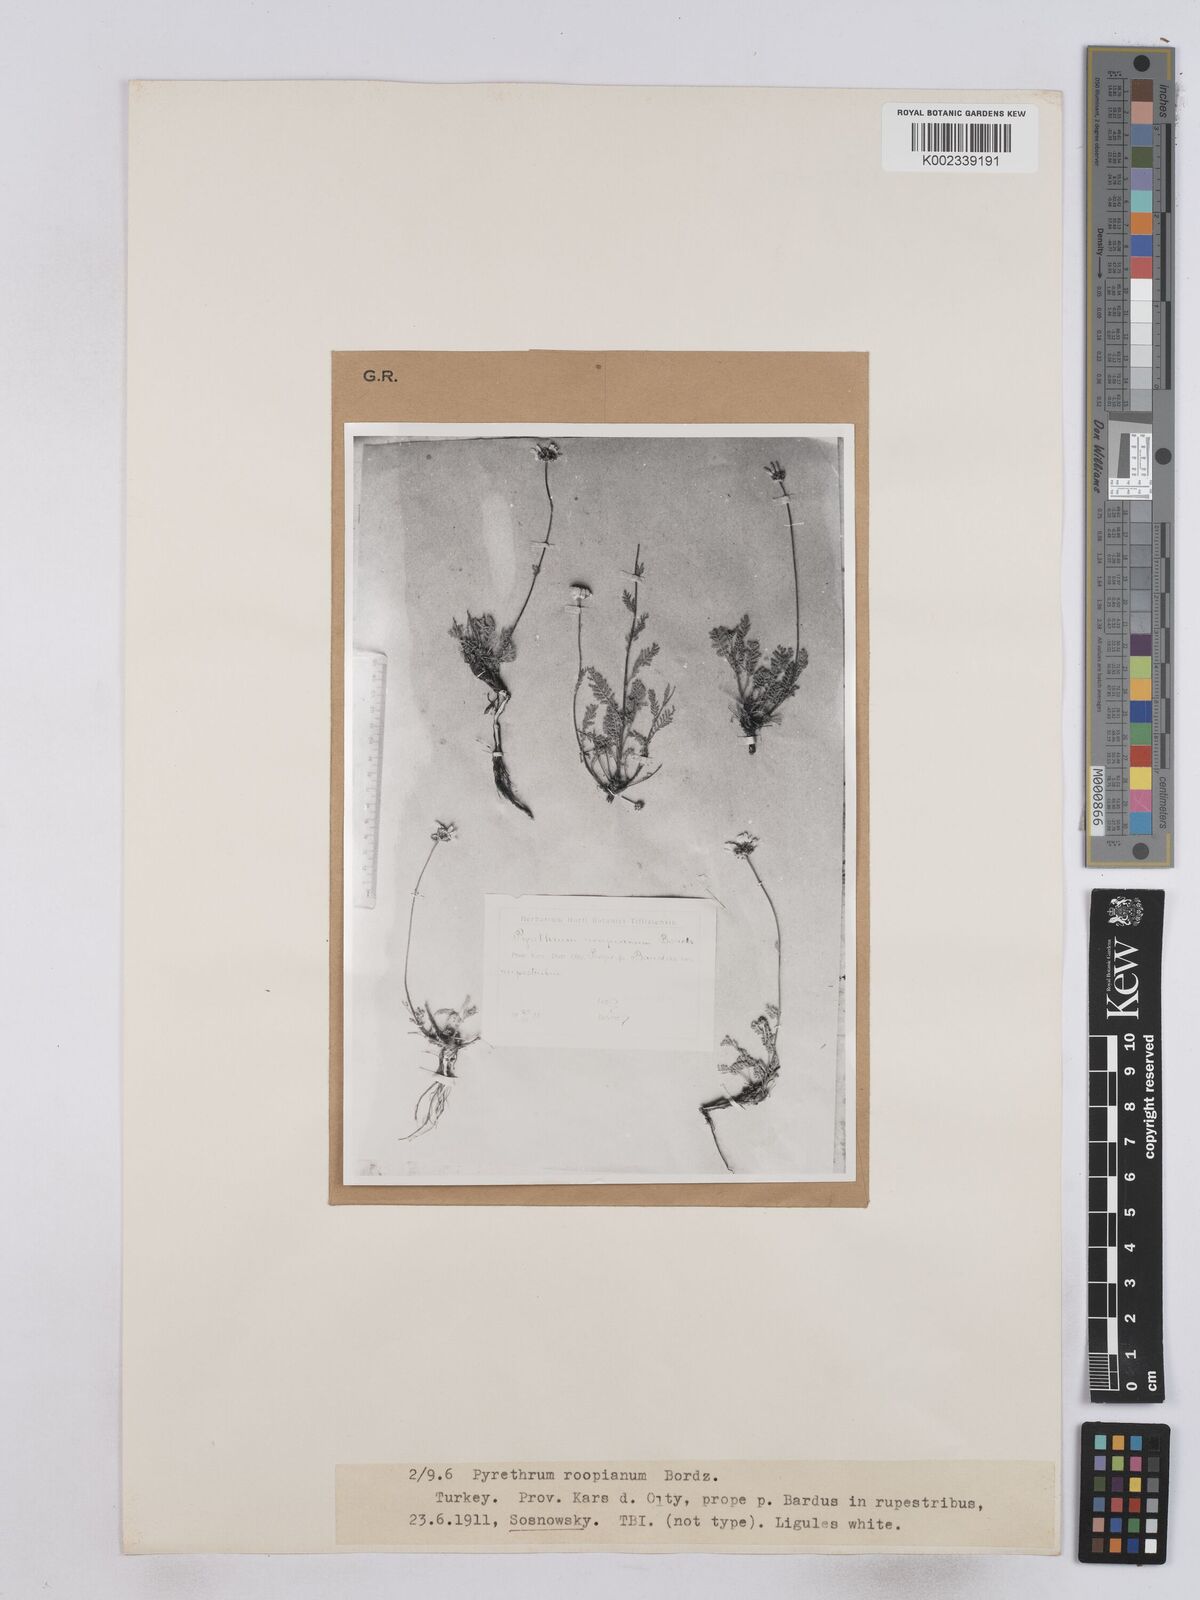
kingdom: Plantae
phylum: Tracheophyta
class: Magnoliopsida
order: Asterales
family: Asteraceae
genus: Tanacetum
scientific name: Tanacetum aucherianum
